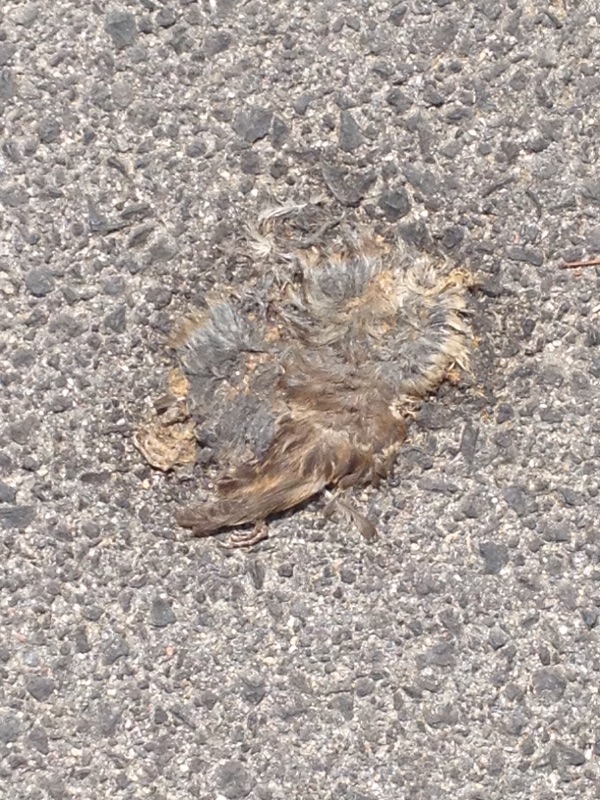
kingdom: Animalia
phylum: Chordata
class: Aves
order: Passeriformes
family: Passeridae
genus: Passer
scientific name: Passer
